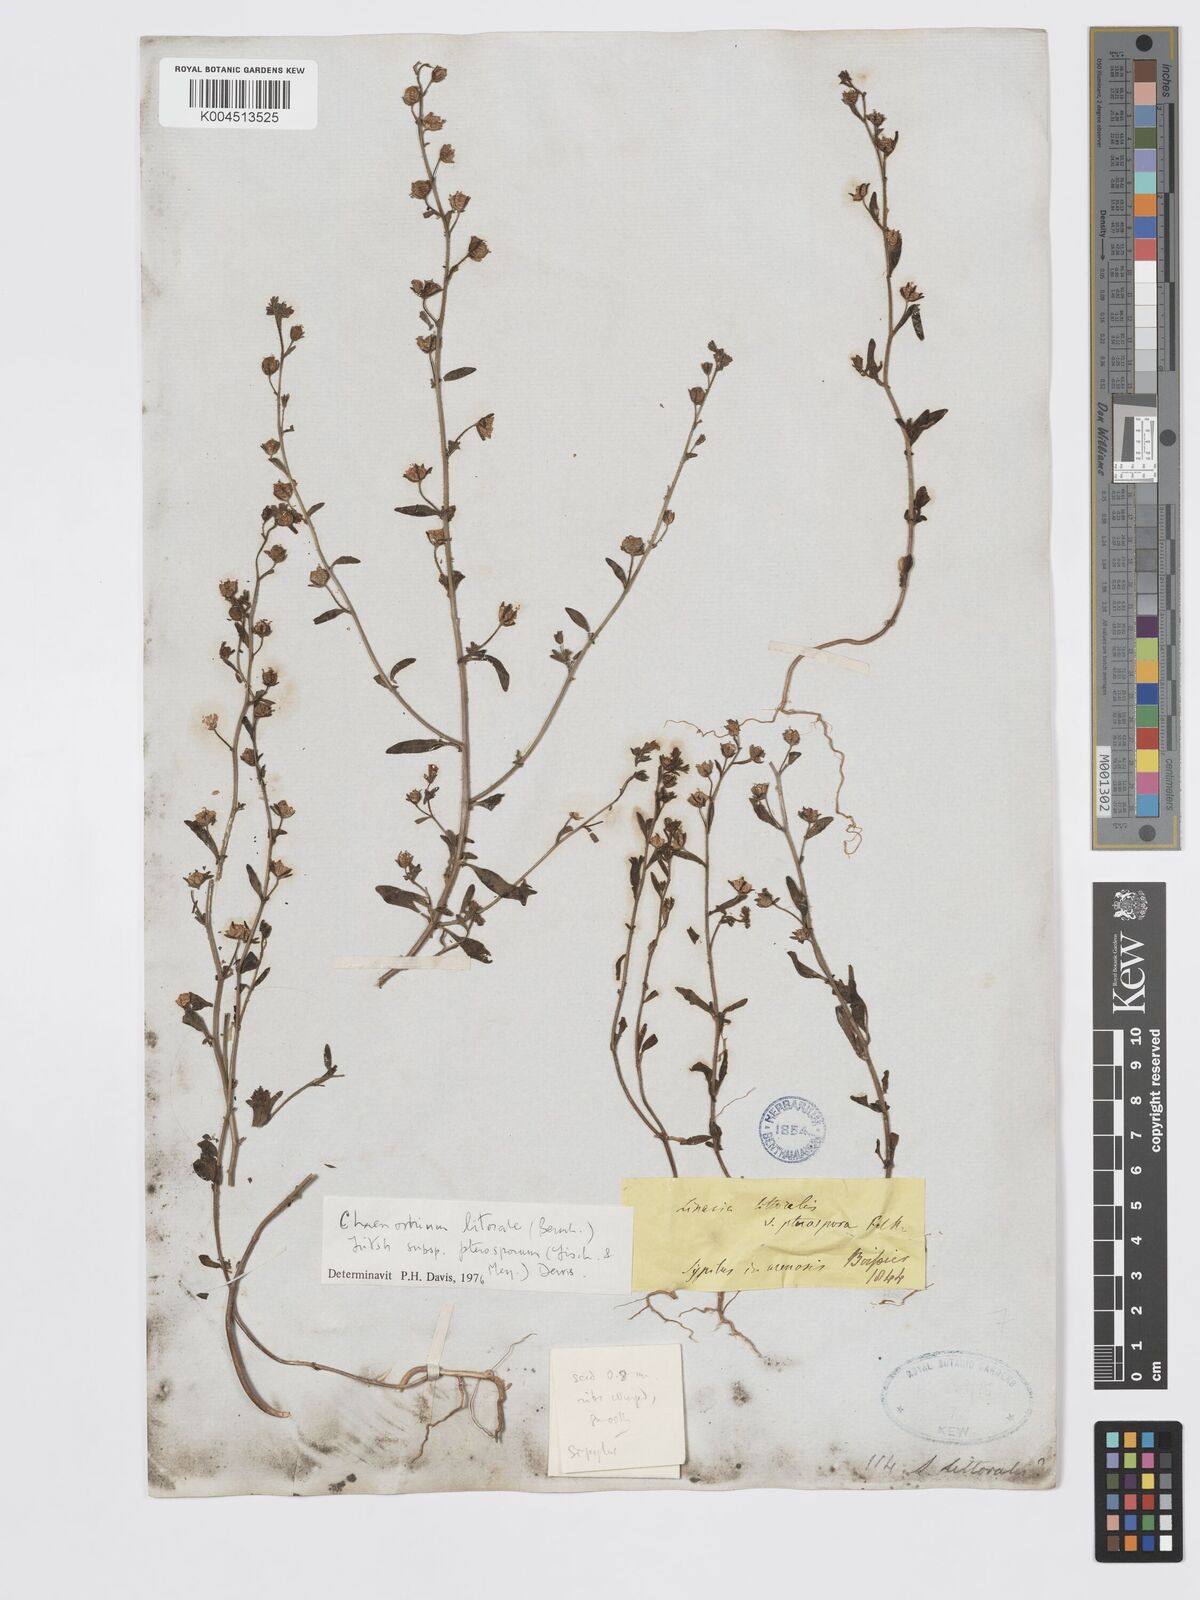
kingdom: Plantae
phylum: Tracheophyta
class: Magnoliopsida
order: Lamiales
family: Plantaginaceae
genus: Chaenorhinum
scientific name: Chaenorhinum litorale
